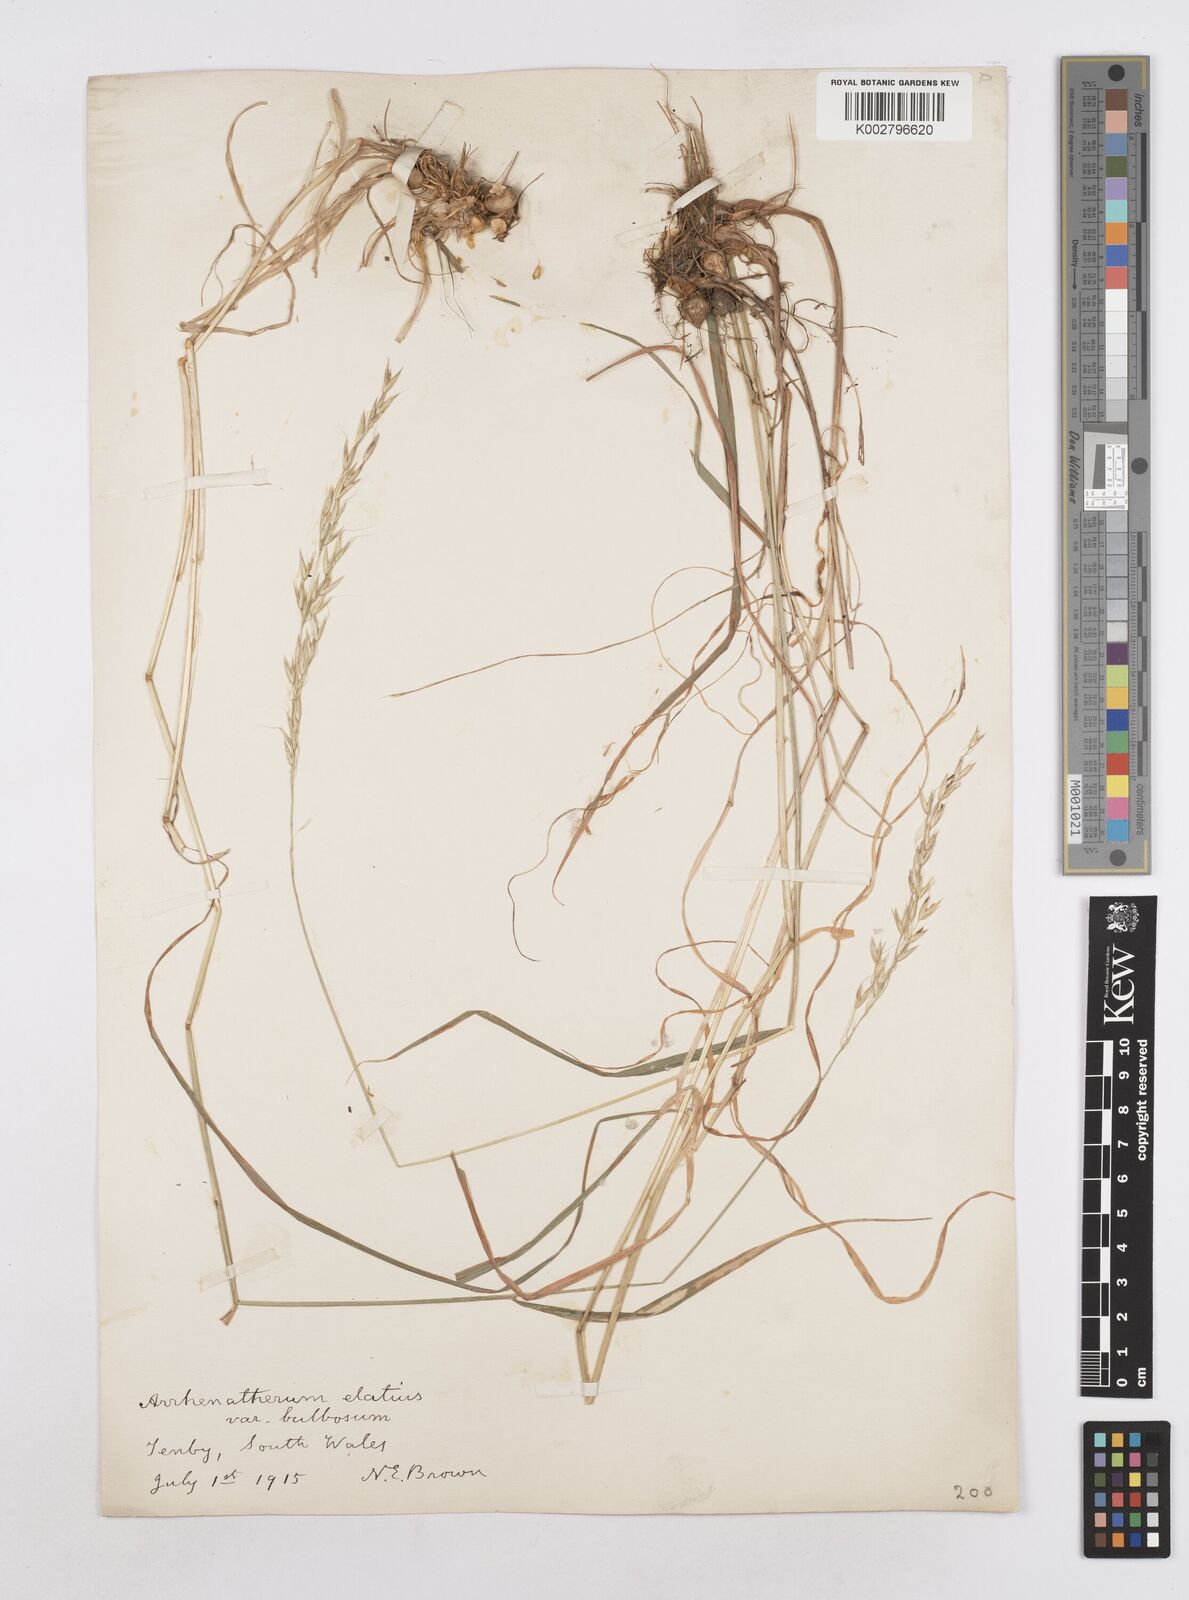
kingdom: Plantae
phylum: Tracheophyta
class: Liliopsida
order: Poales
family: Poaceae
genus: Arrhenatherum
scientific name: Arrhenatherum elatius
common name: Tall oatgrass
